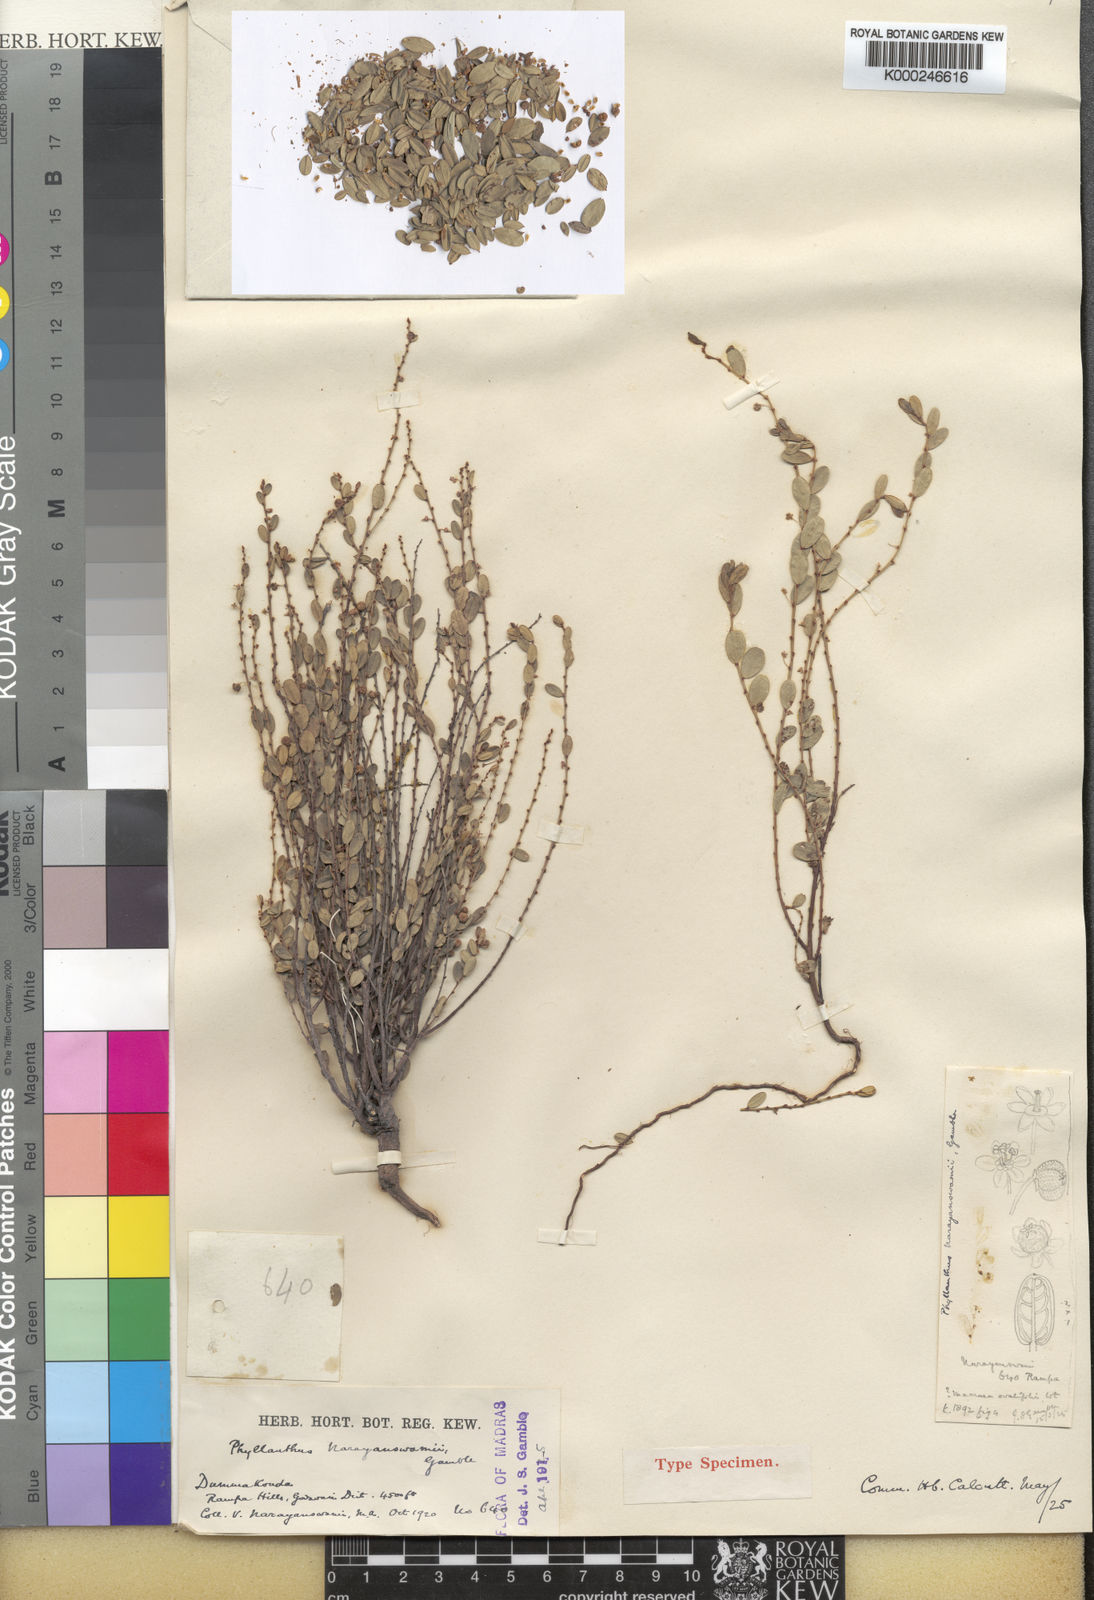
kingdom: Plantae
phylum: Tracheophyta
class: Magnoliopsida
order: Malpighiales
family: Phyllanthaceae
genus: Phyllanthus
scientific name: Phyllanthus virgatus
